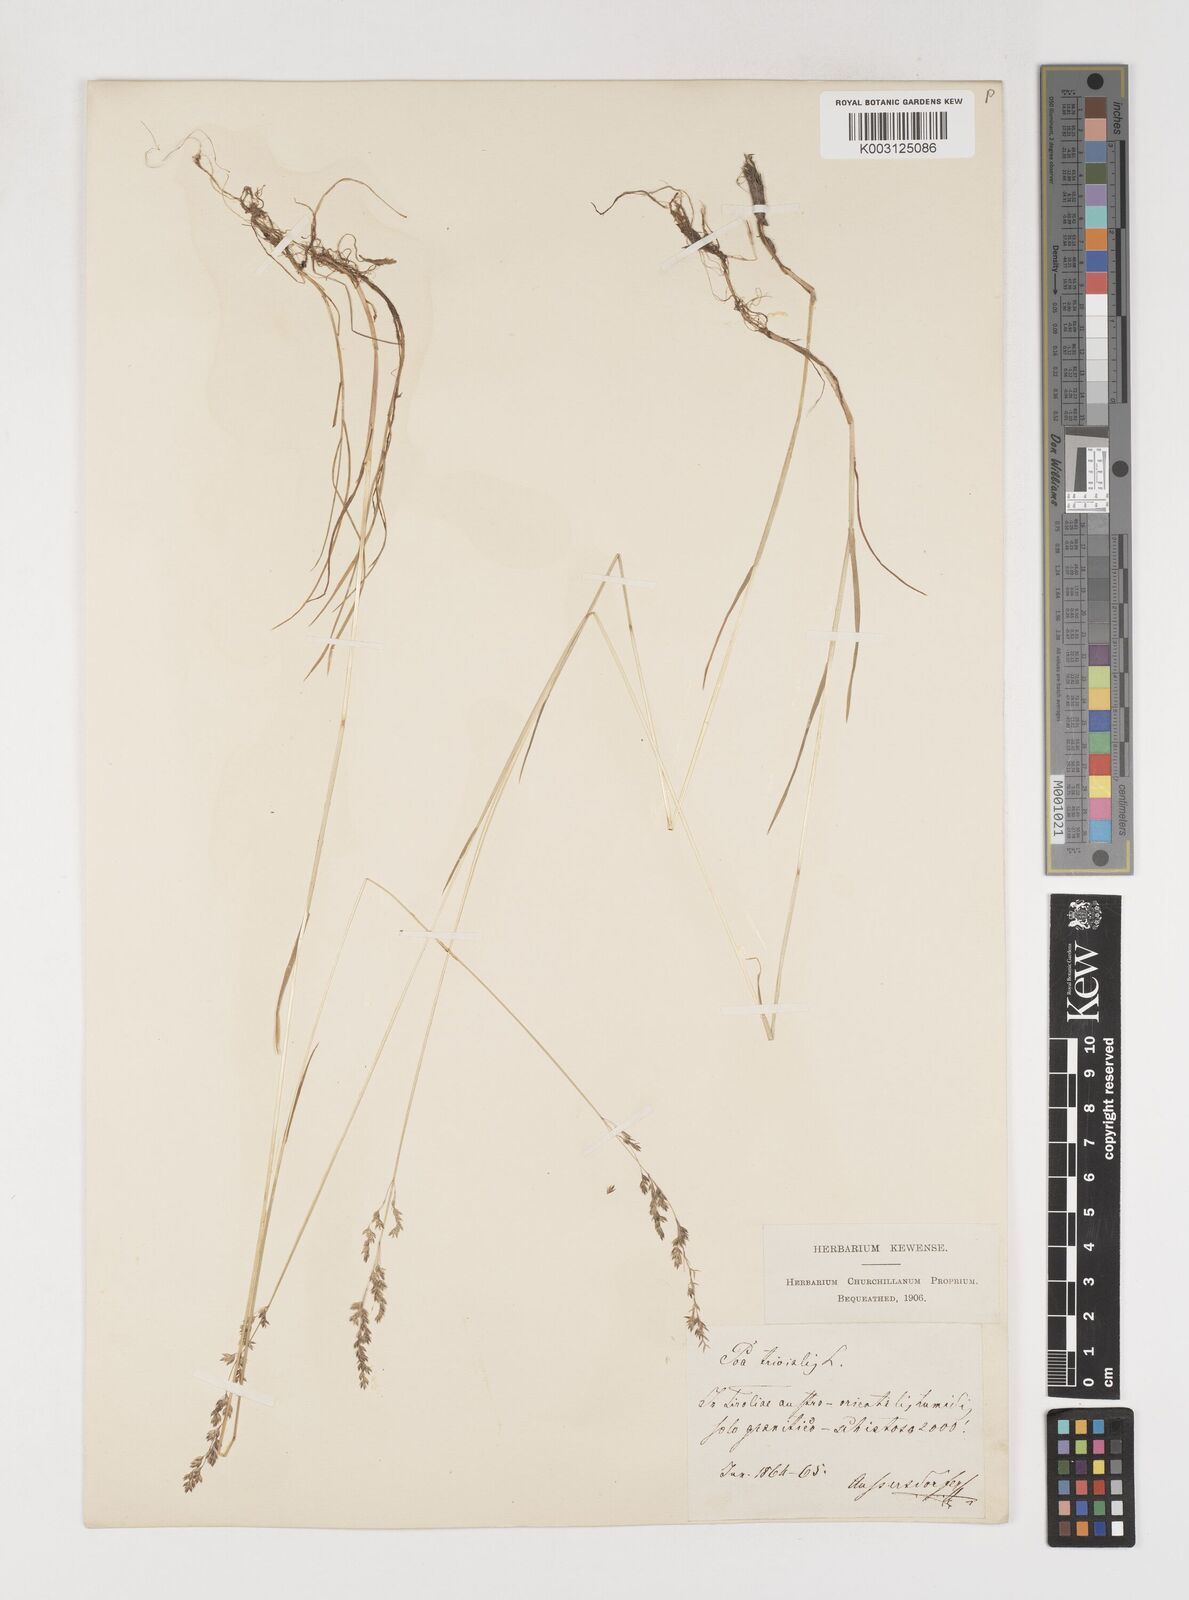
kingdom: Plantae
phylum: Tracheophyta
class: Liliopsida
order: Poales
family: Poaceae
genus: Poa
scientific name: Poa trivialis
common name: Rough bluegrass
